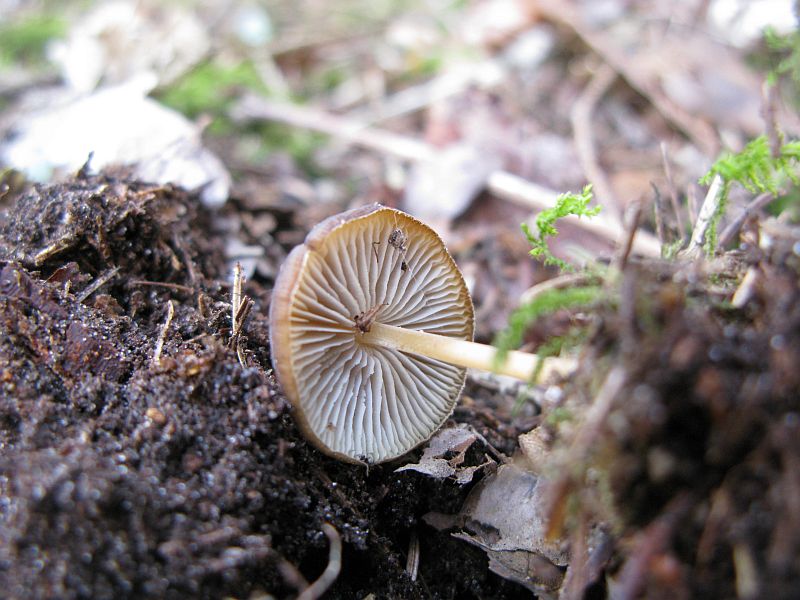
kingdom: Fungi
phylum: Basidiomycota
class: Agaricomycetes
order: Agaricales
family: Physalacriaceae
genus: Strobilurus
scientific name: Strobilurus esculentus
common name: gran-koglehat
